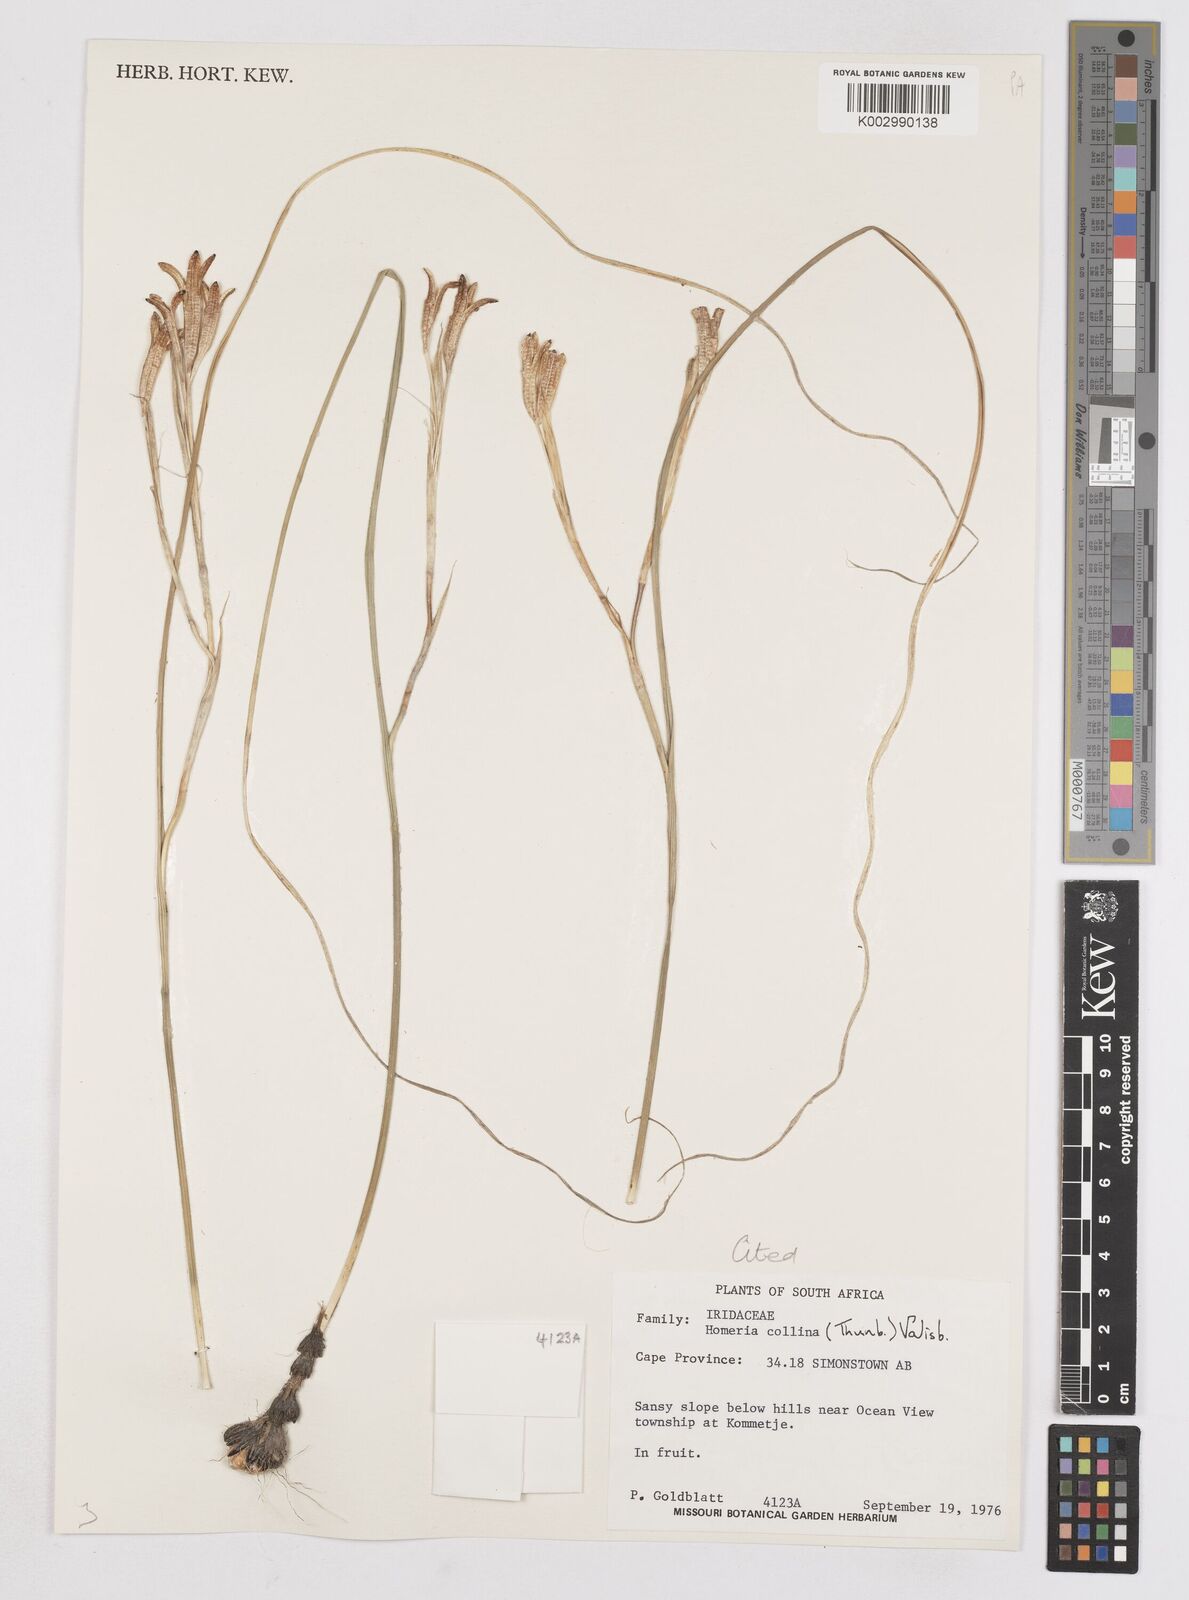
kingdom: Plantae
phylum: Tracheophyta
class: Liliopsida
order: Asparagales
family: Iridaceae
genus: Moraea
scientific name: Moraea collina
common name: Cape-tulip
